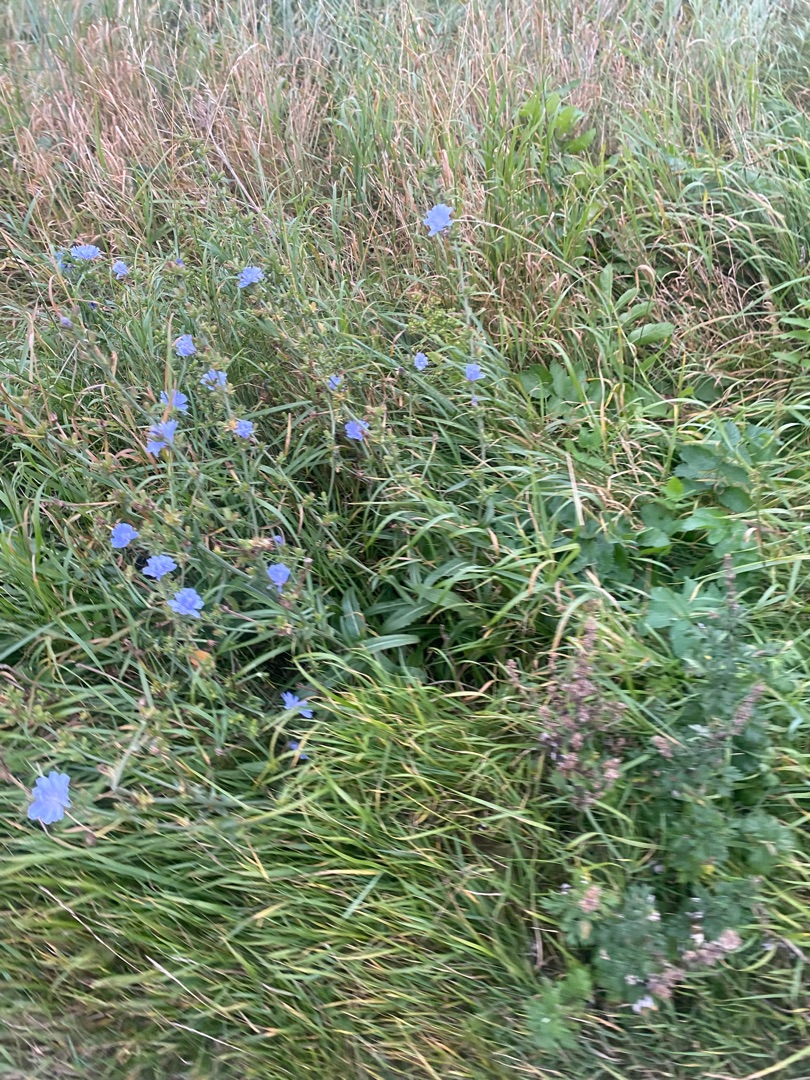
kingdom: Plantae
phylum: Tracheophyta
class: Magnoliopsida
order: Asterales
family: Asteraceae
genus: Cichorium
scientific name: Cichorium intybus
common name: Cikorie
